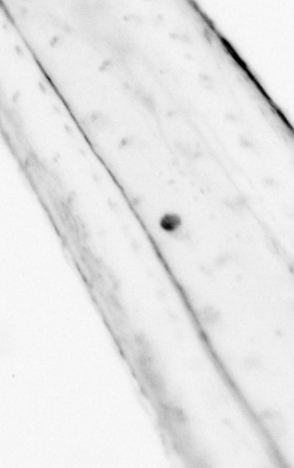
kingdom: Animalia
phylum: Chaetognatha
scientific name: Chaetognatha
